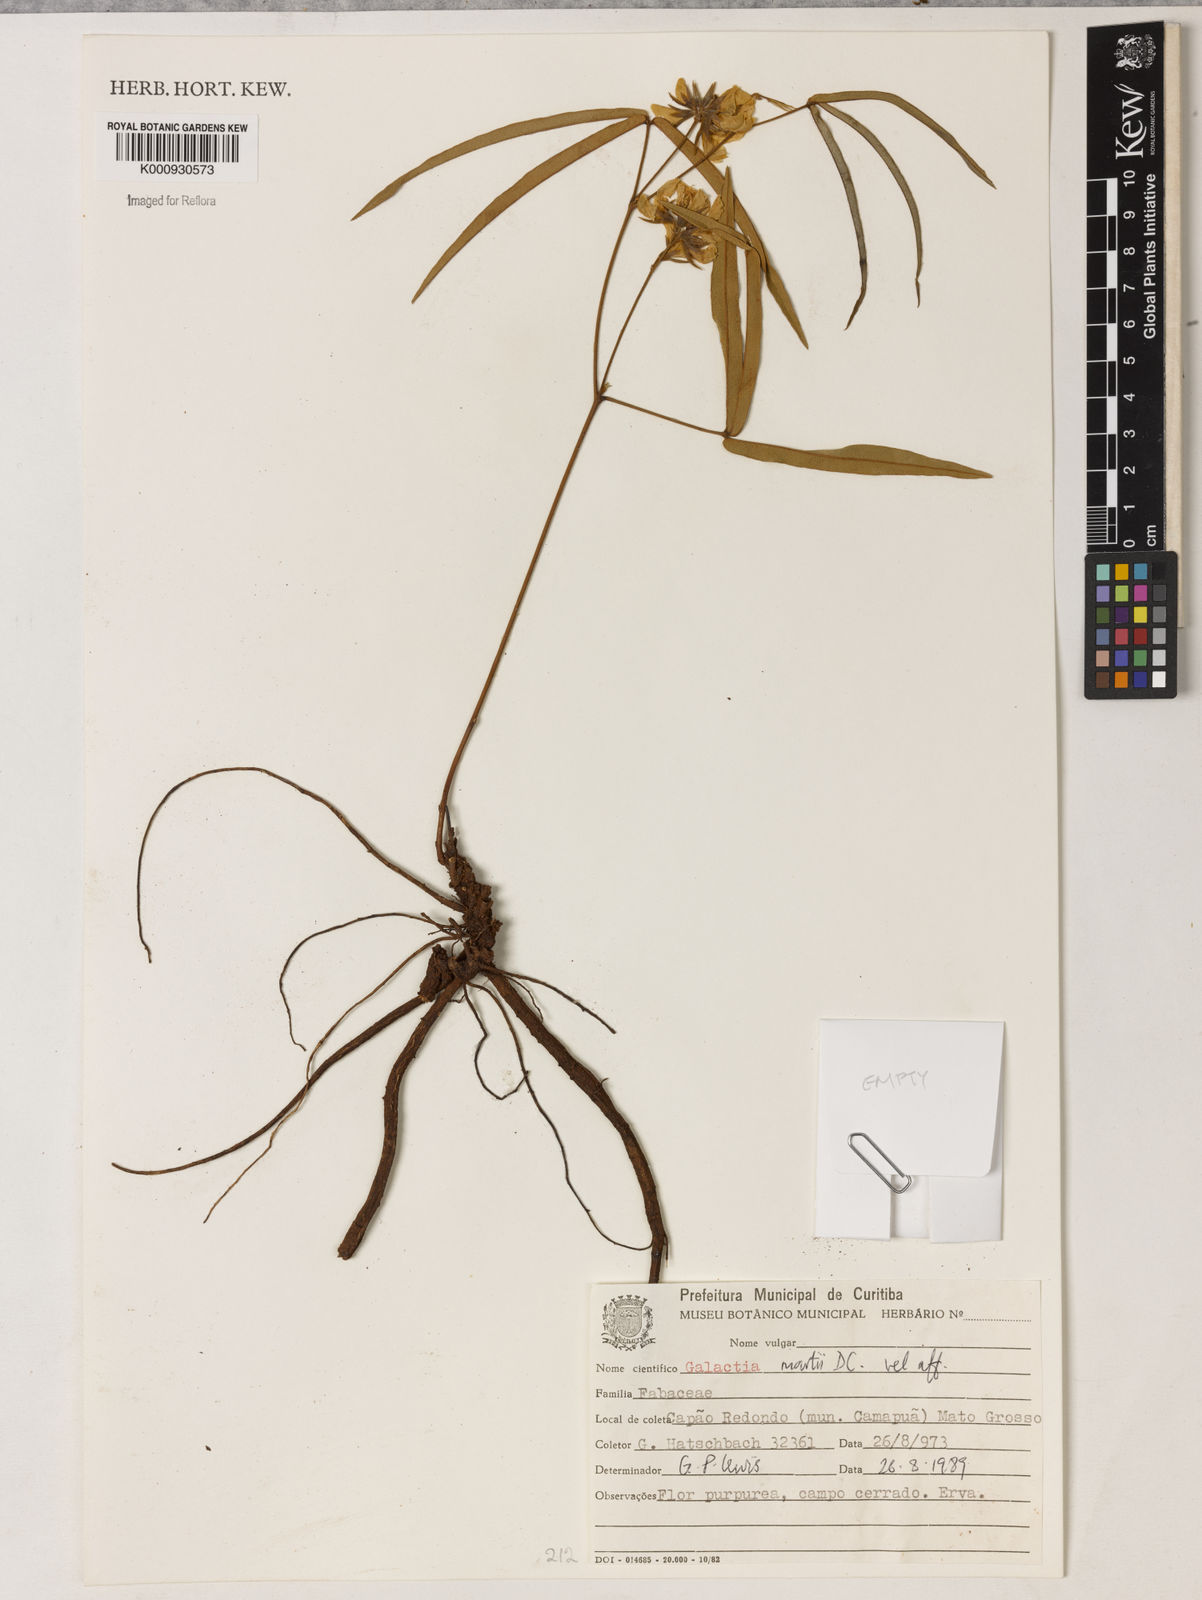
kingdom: Plantae
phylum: Tracheophyta
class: Magnoliopsida
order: Fabales
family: Fabaceae
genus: Betencourtia
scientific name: Betencourtia martii
